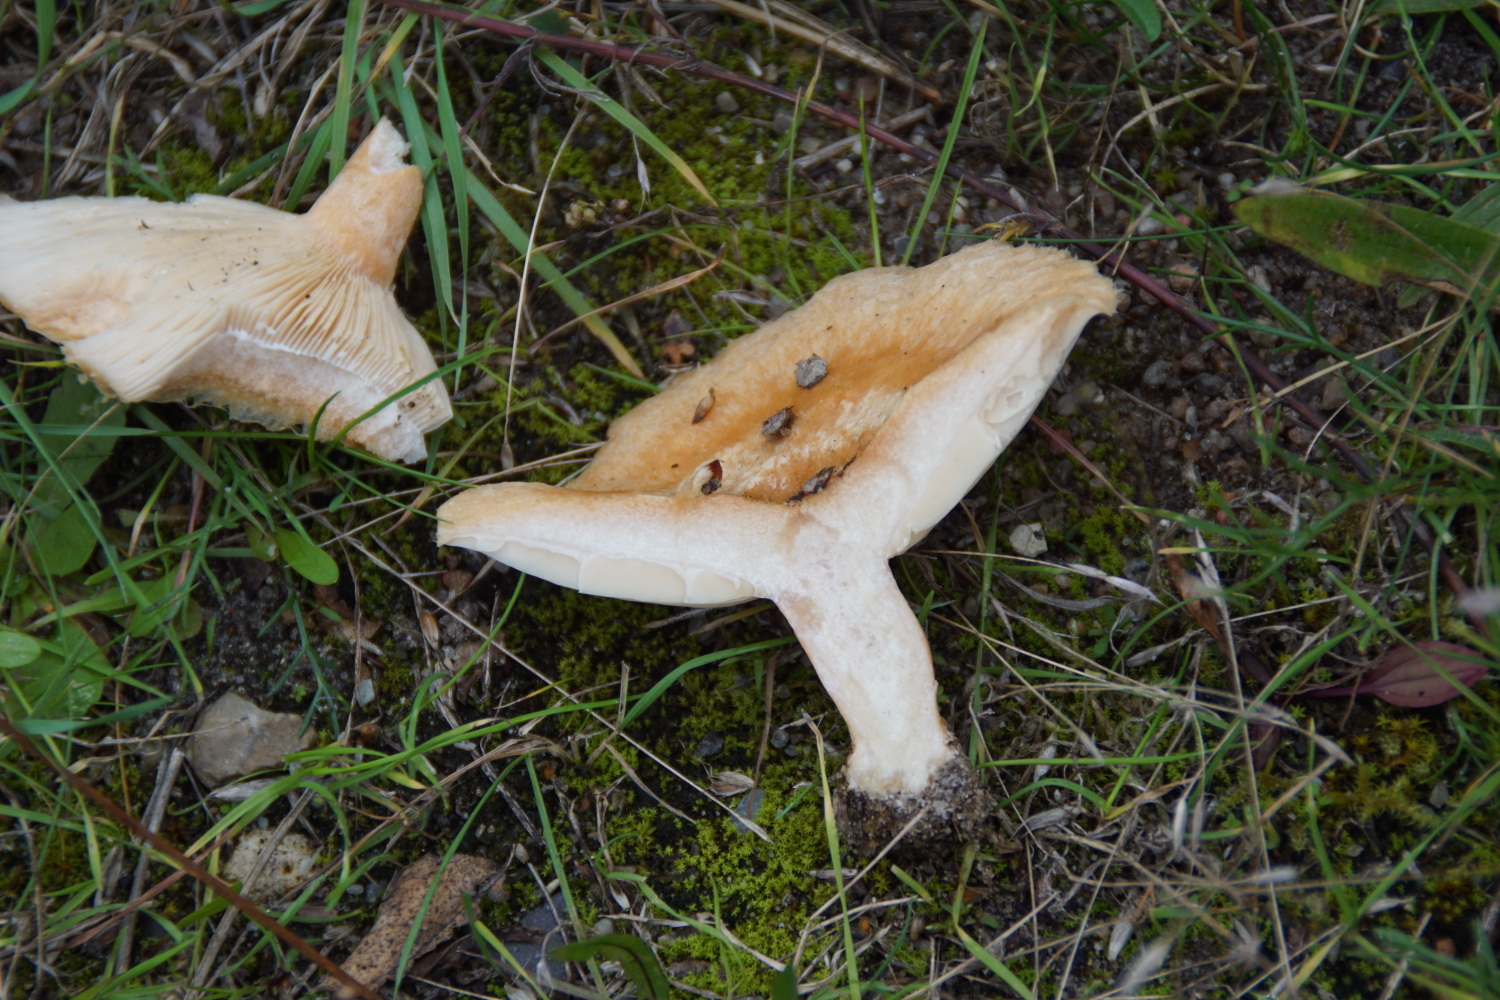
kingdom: Fungi
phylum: Basidiomycota
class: Agaricomycetes
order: Russulales
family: Russulaceae
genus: Lactarius
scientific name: Lactarius pubescens
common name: dunet mælkehat
